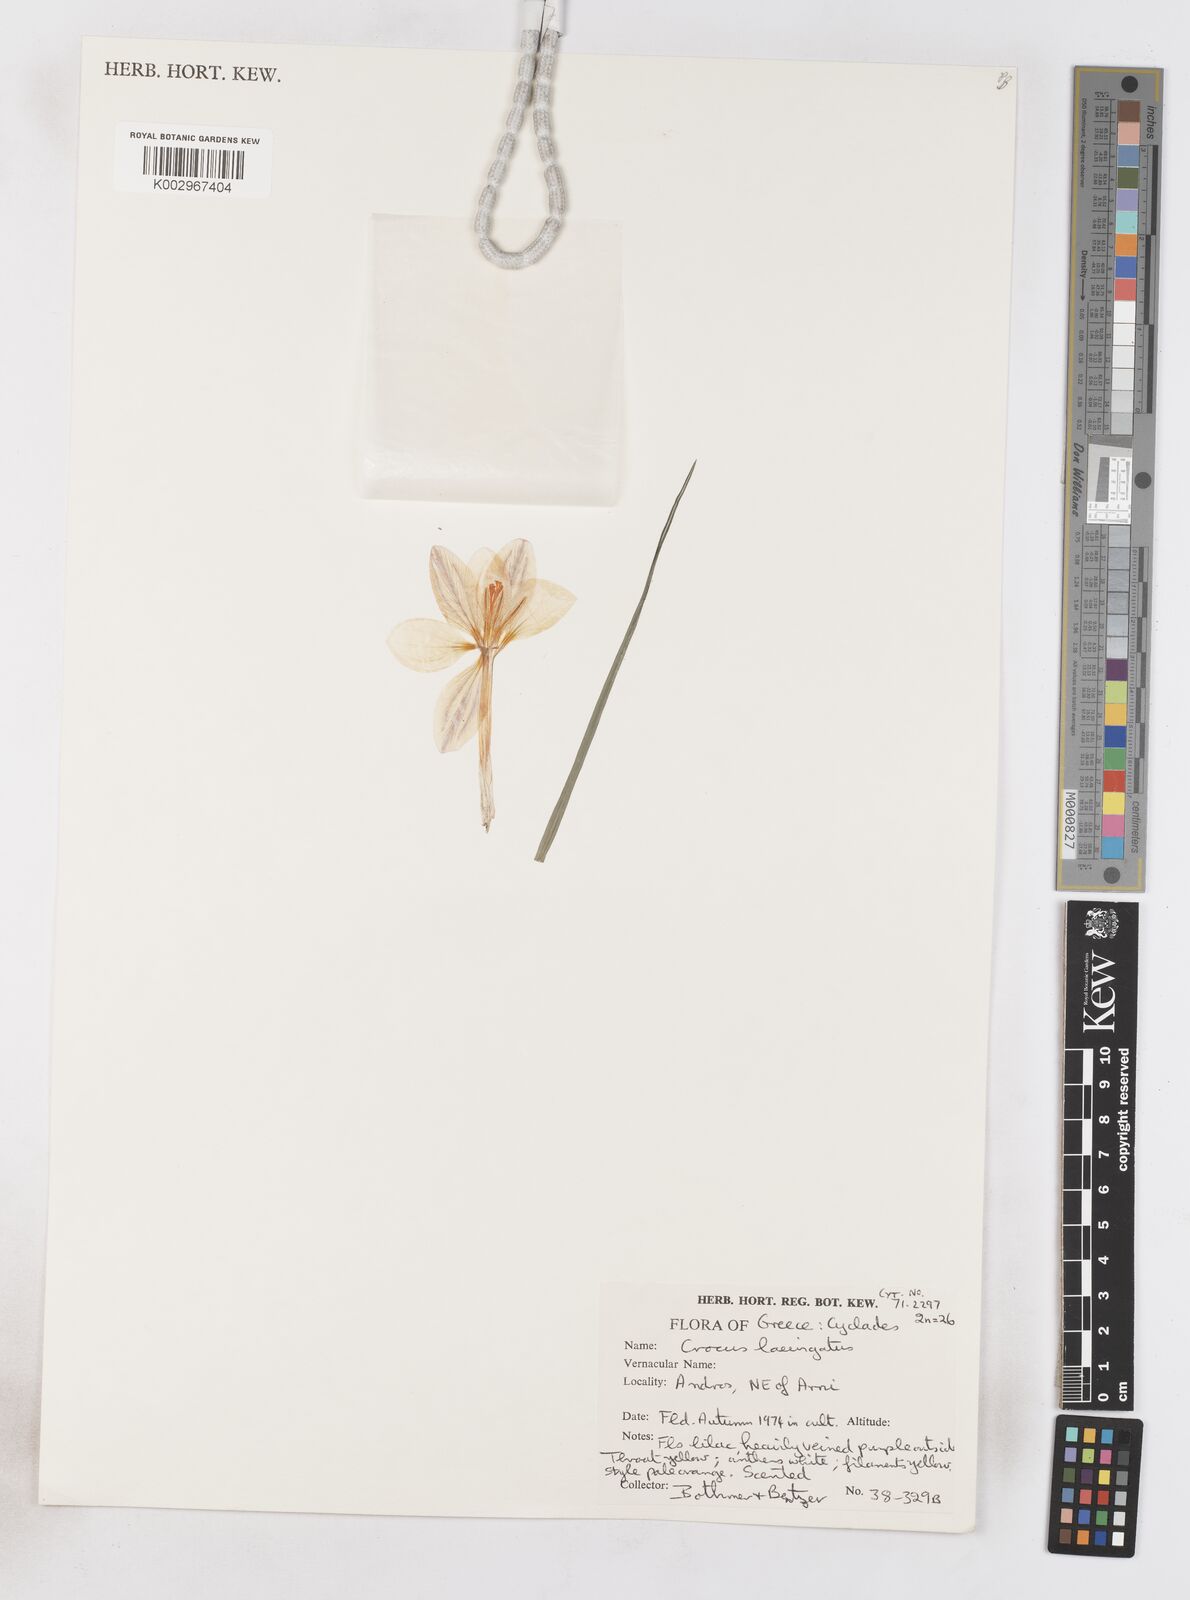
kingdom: Plantae
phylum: Tracheophyta
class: Liliopsida
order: Asparagales
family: Iridaceae
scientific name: Iridaceae
